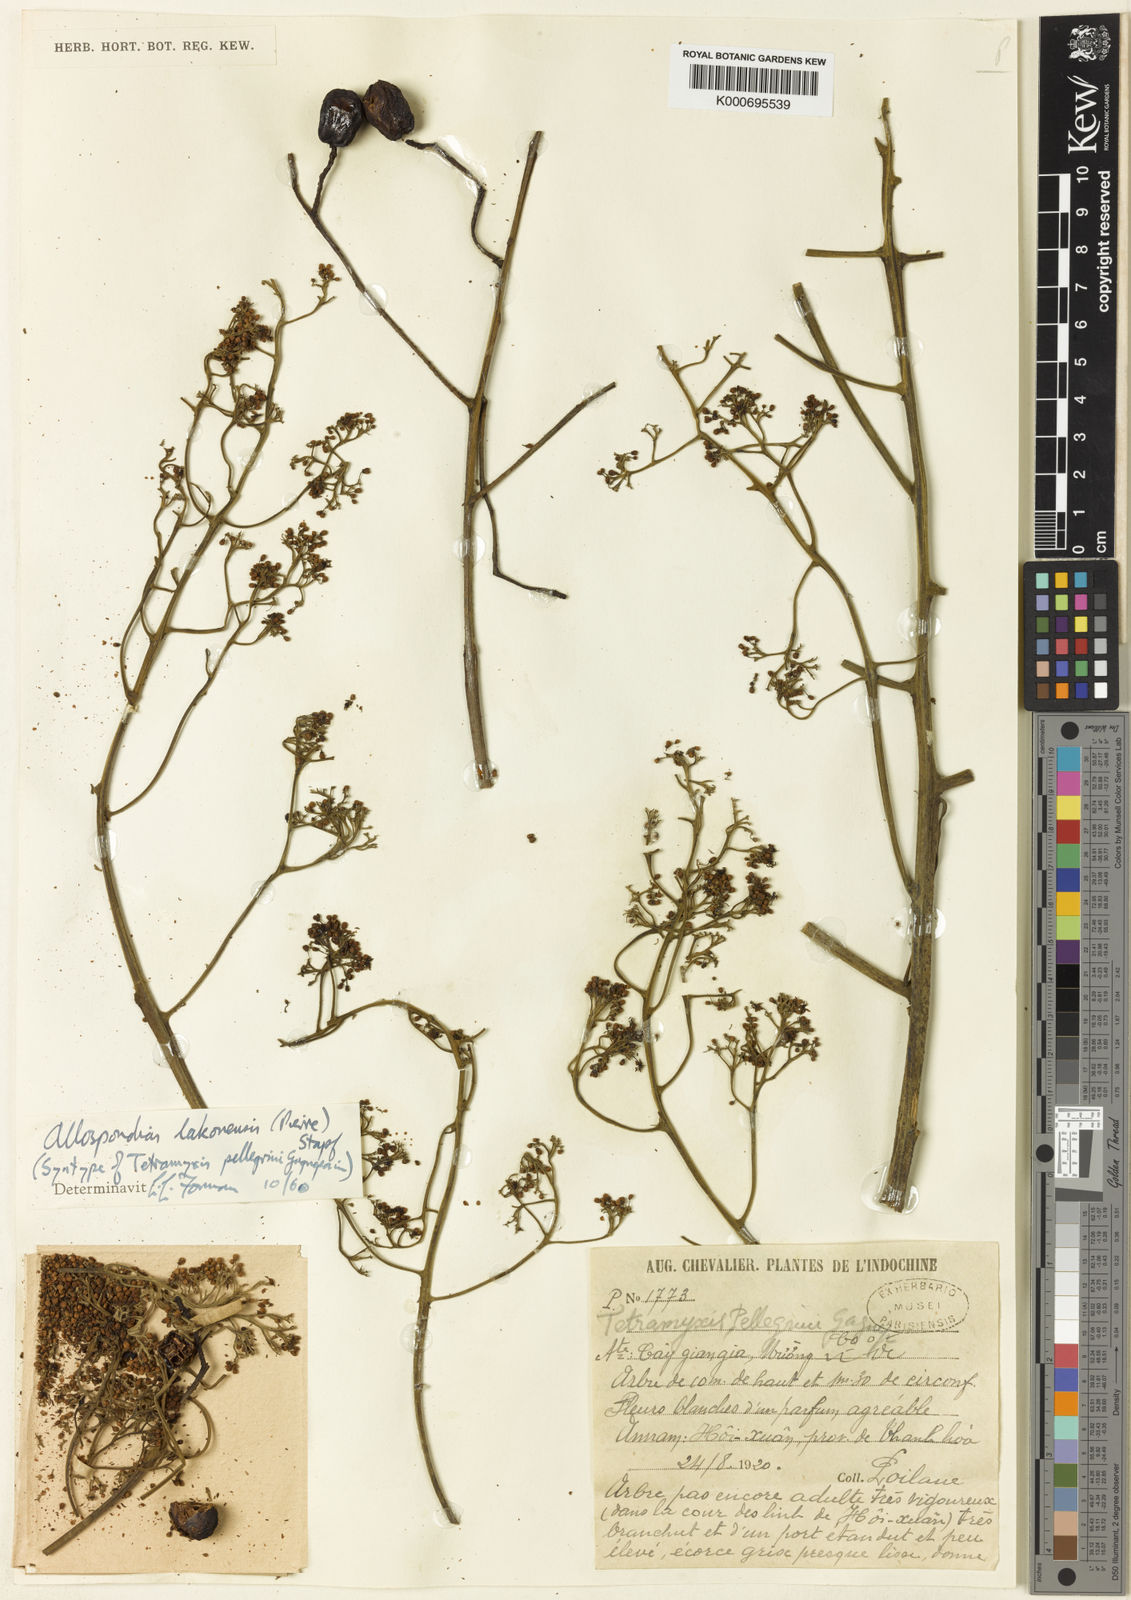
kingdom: Plantae
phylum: Tracheophyta
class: Magnoliopsida
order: Sapindales
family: Anacardiaceae
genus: Allospondias
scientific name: Allospondias lakonensis
